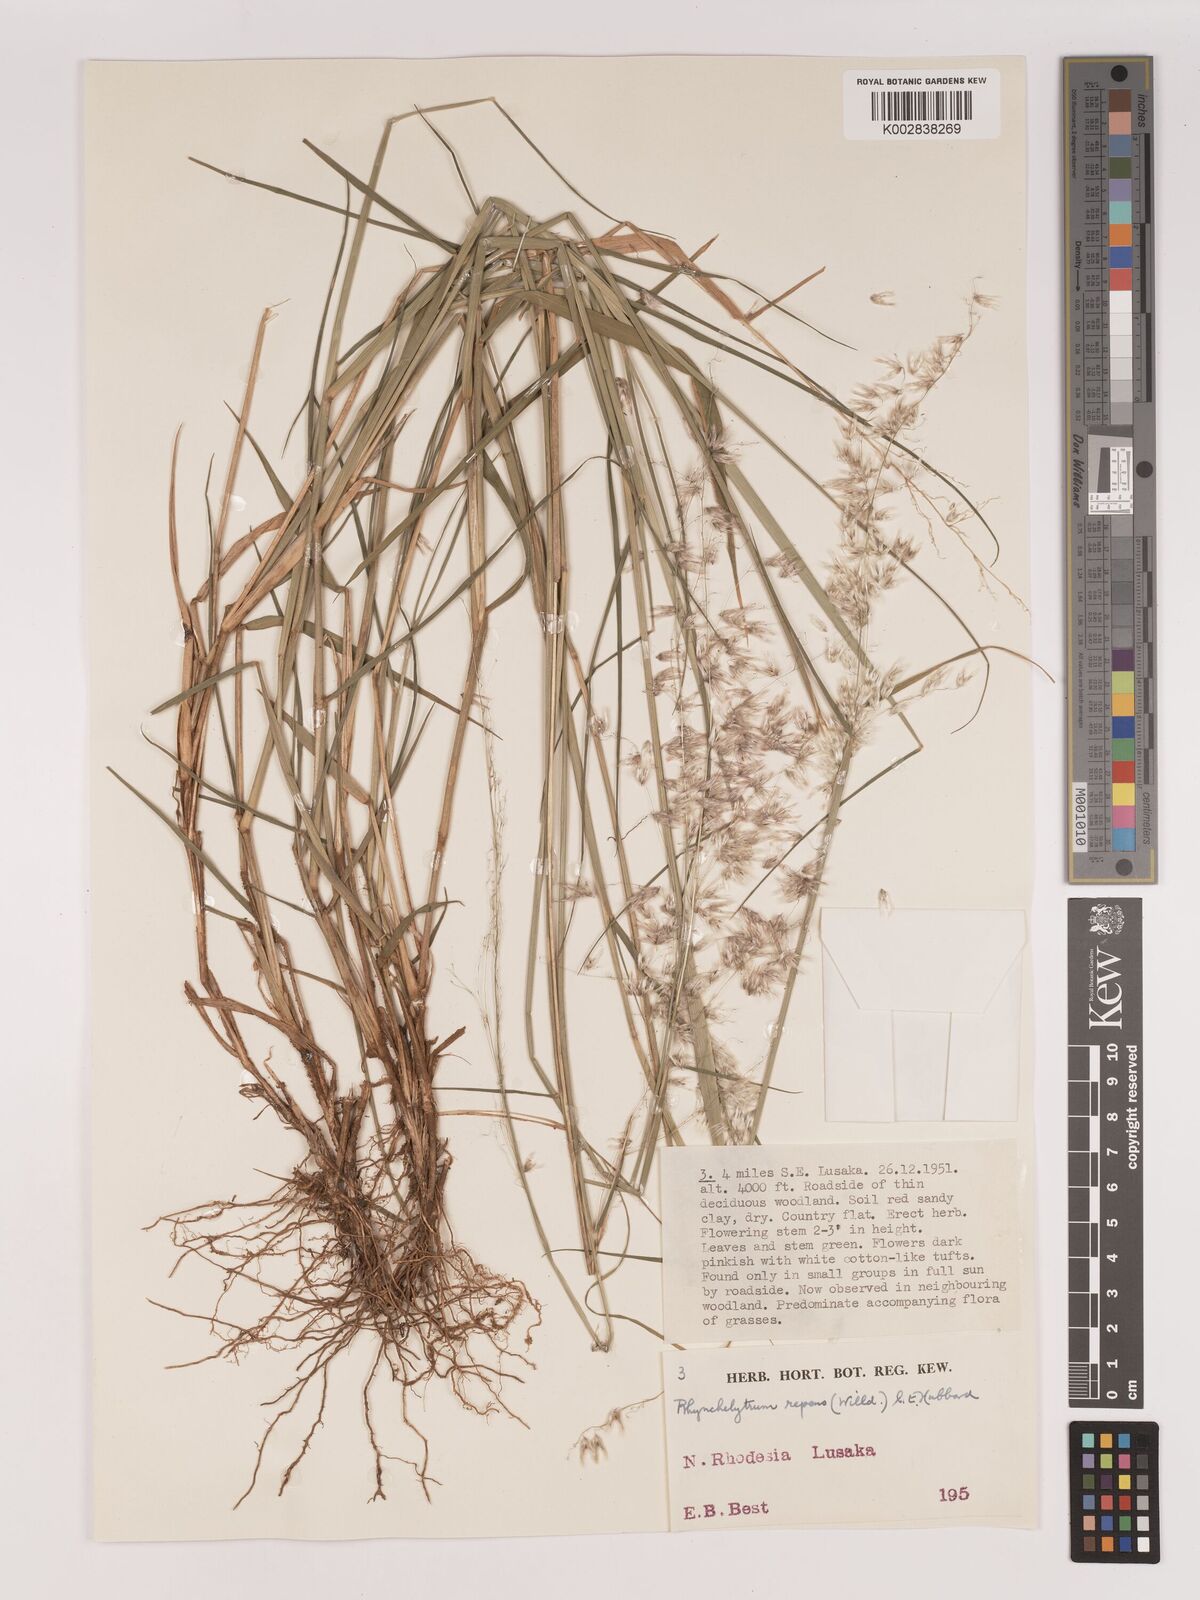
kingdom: Plantae
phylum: Tracheophyta
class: Liliopsida
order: Poales
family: Poaceae
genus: Melinis
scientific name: Melinis repens
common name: Rose natal grass
